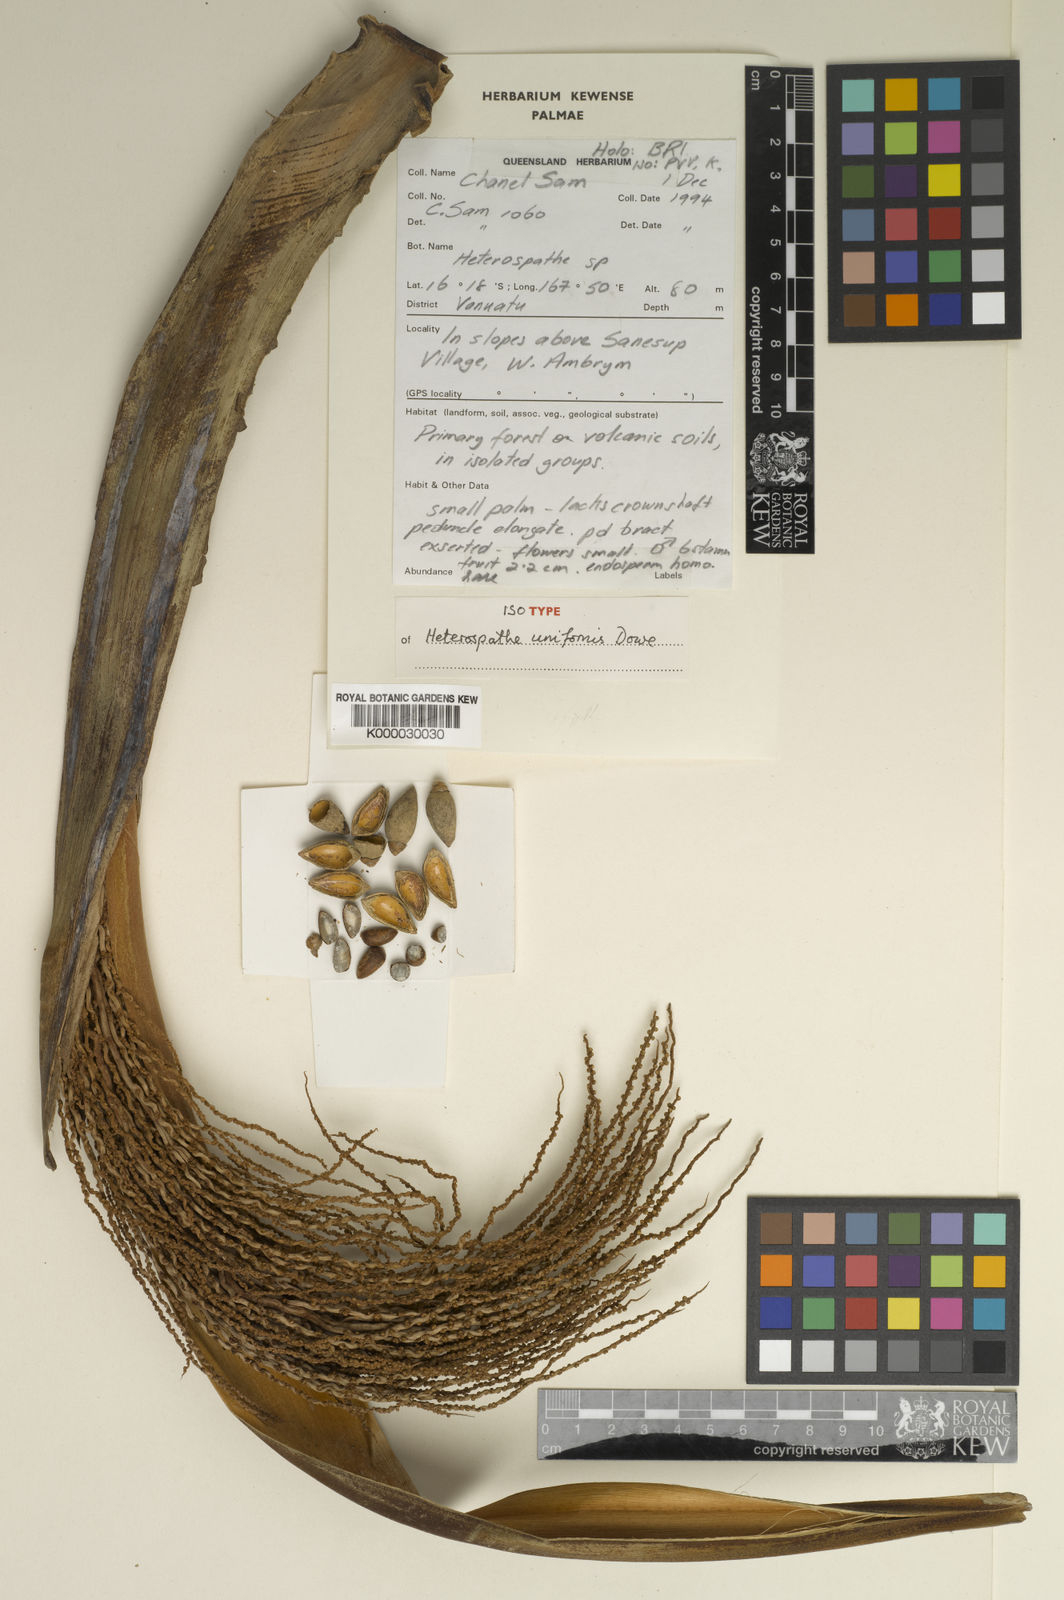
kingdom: Plantae
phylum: Tracheophyta
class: Liliopsida
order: Arecales
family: Arecaceae
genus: Heterospathe
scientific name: Heterospathe
